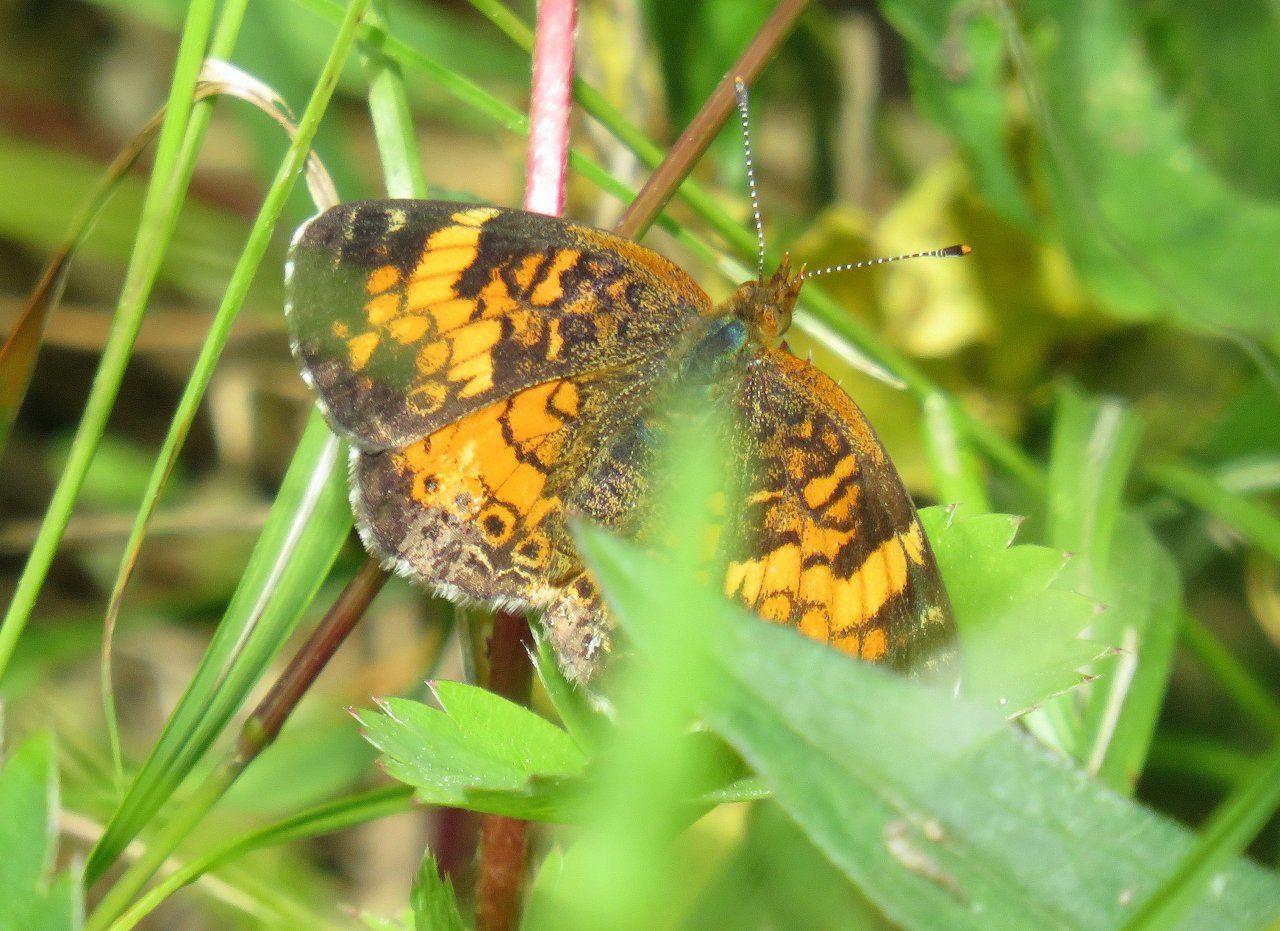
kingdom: Animalia
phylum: Arthropoda
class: Insecta
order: Lepidoptera
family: Nymphalidae
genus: Phyciodes
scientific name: Phyciodes tharos
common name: Northern Crescent
